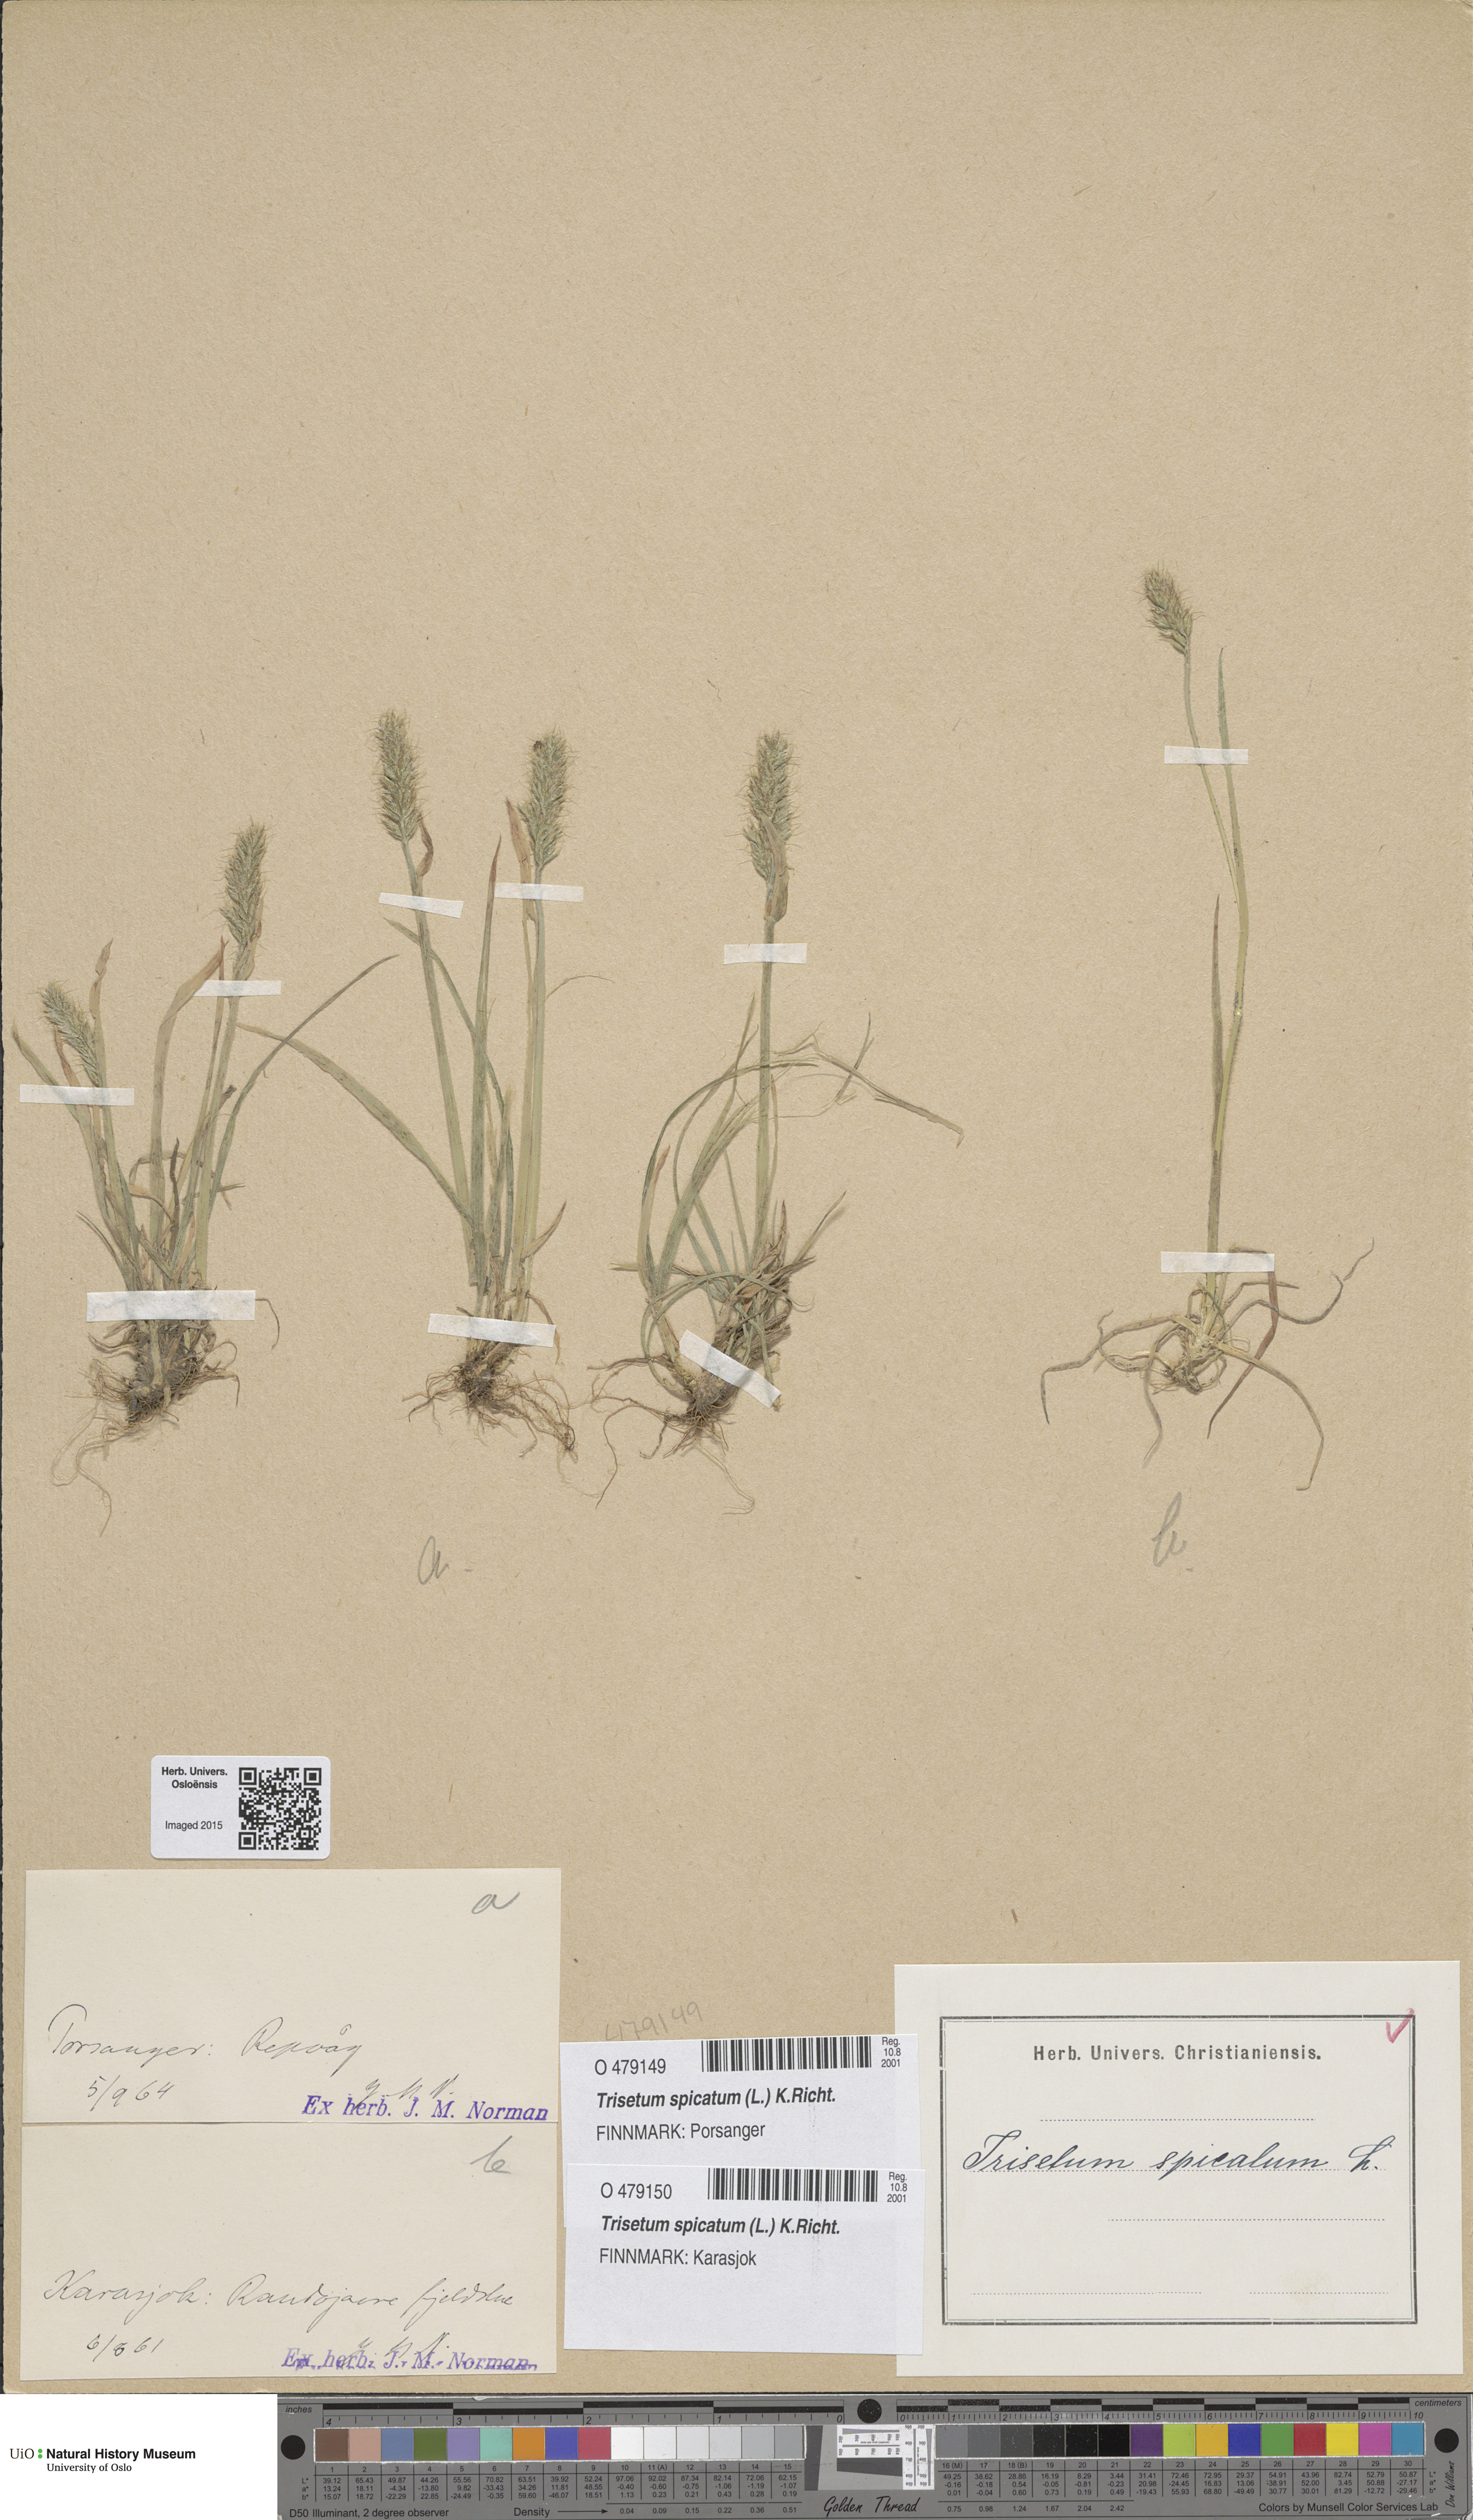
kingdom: Plantae
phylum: Tracheophyta
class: Liliopsida
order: Poales
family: Poaceae
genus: Koeleria
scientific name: Koeleria spicata
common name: Mountain trisetum
